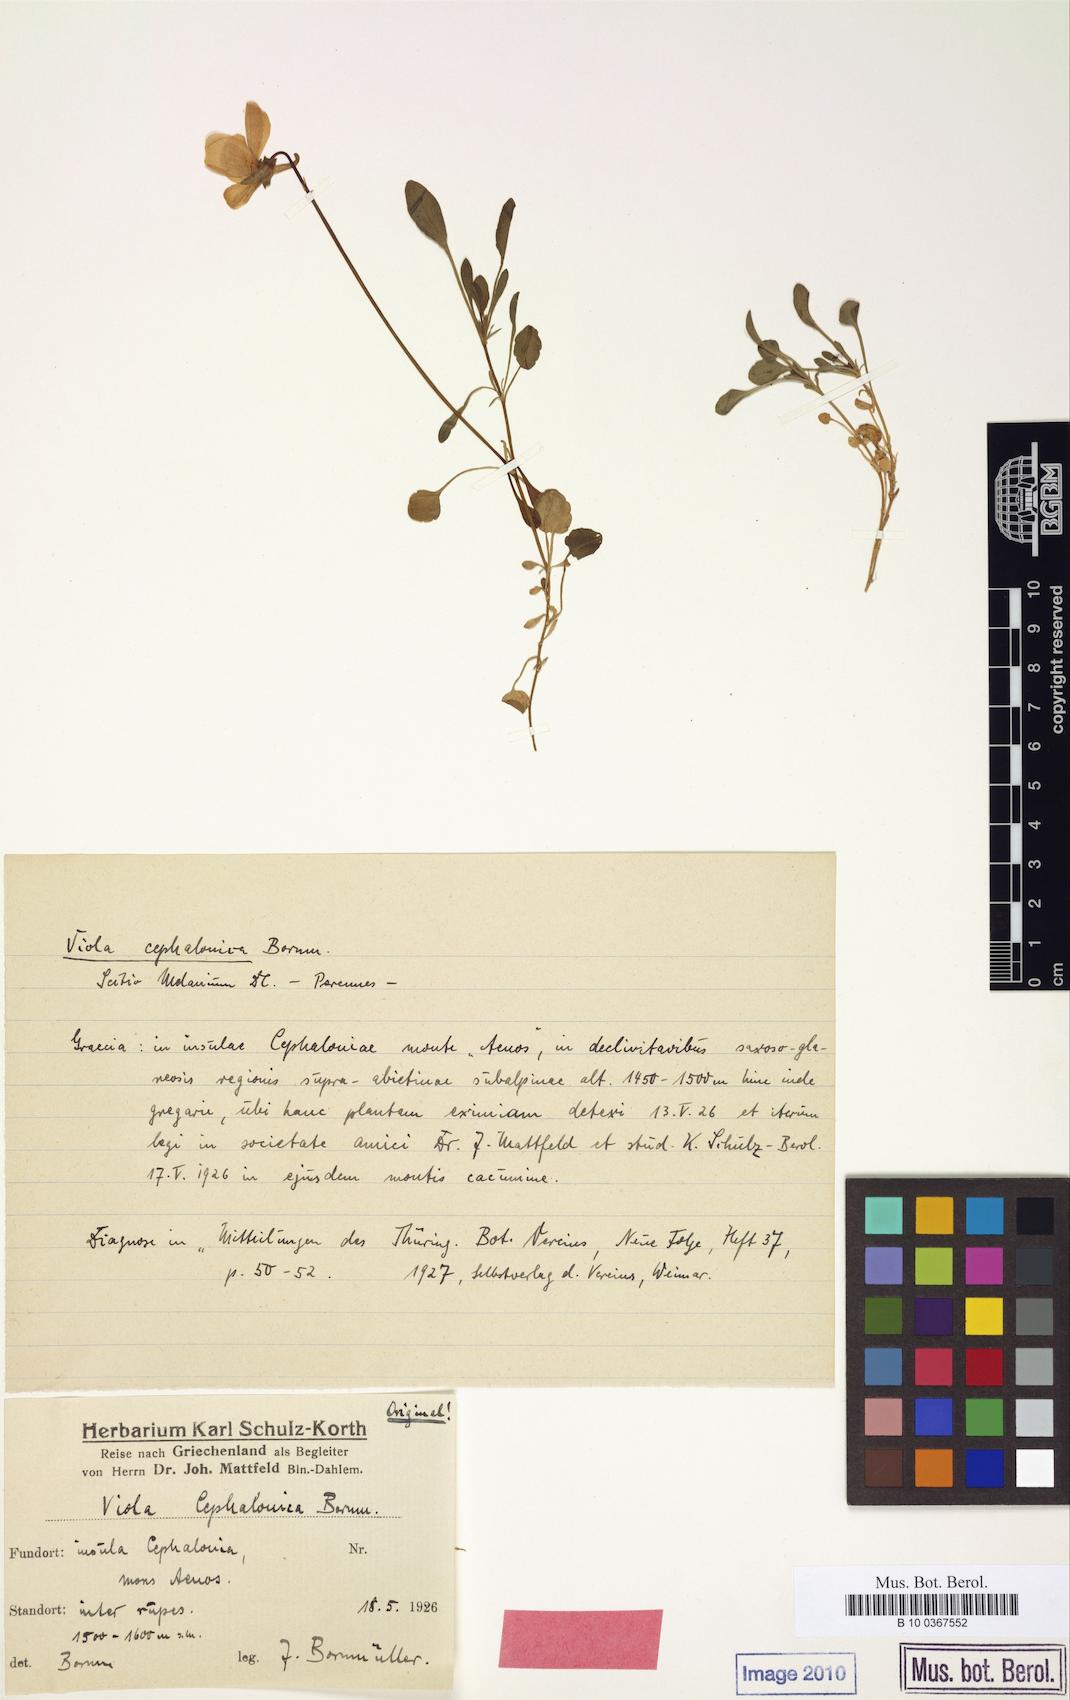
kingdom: Plantae
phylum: Tracheophyta
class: Magnoliopsida
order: Malpighiales
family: Violaceae
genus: Viola
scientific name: Viola cephalonica
